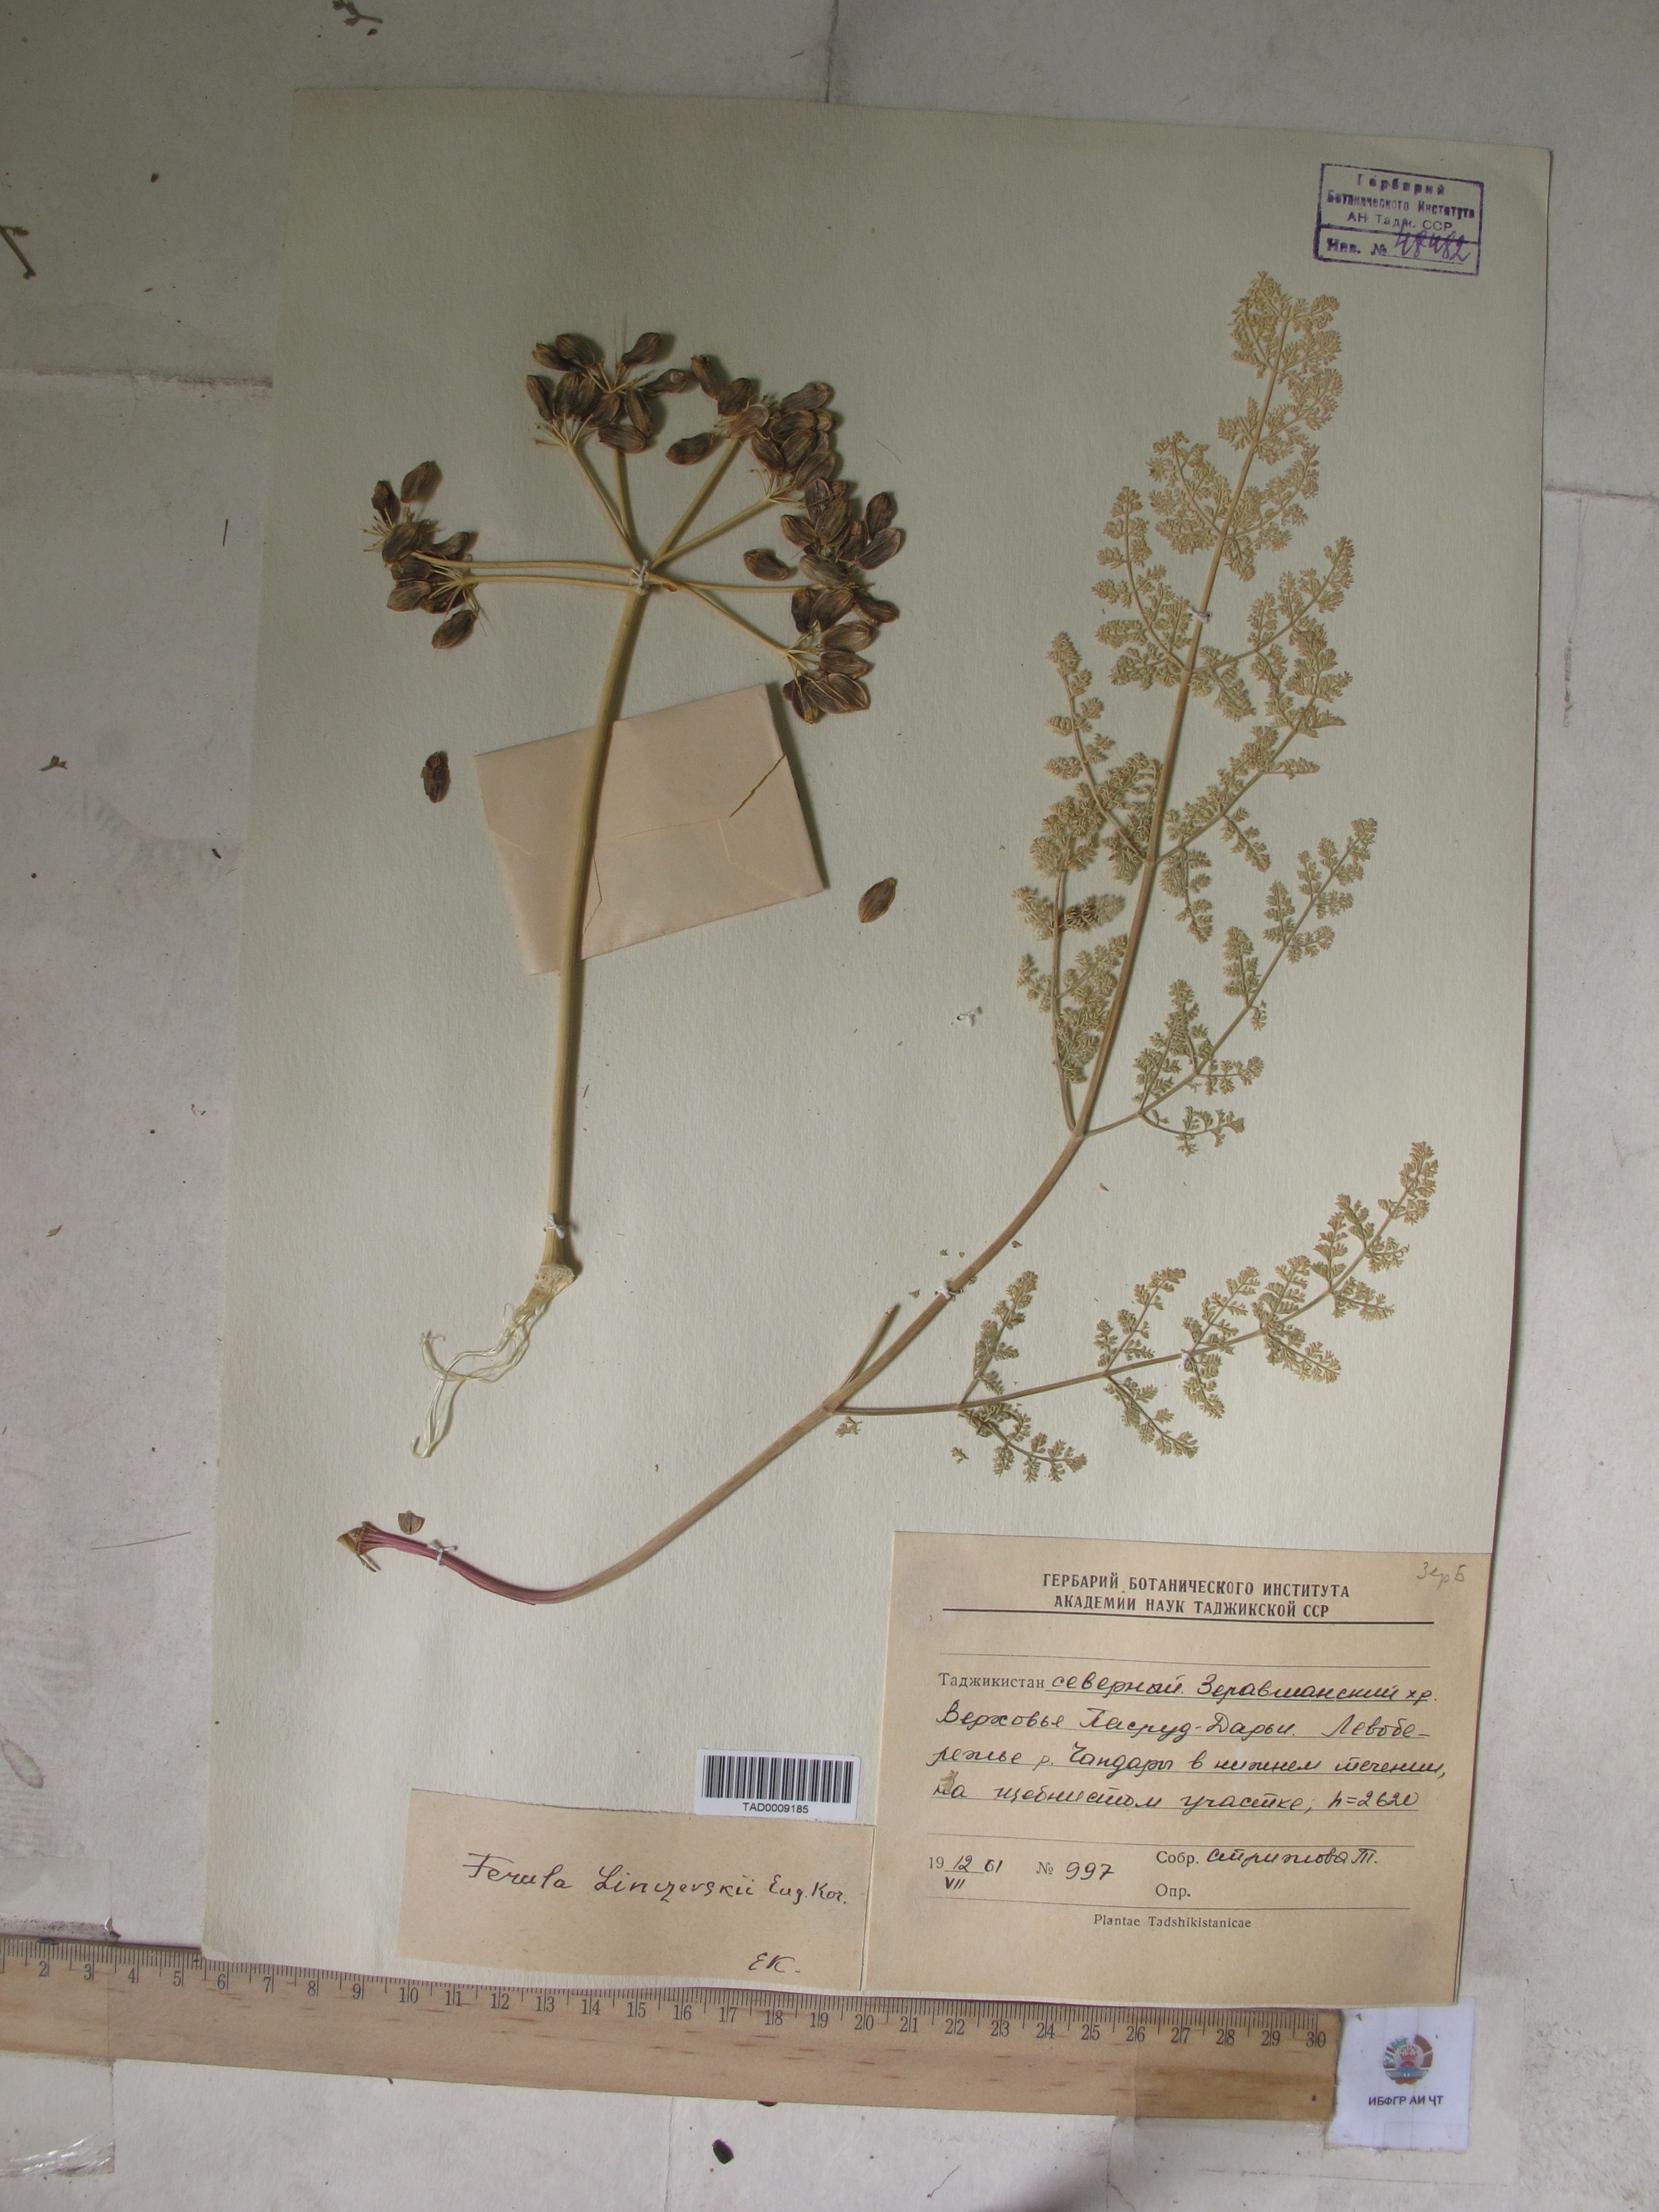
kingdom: Plantae
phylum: Tracheophyta
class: Magnoliopsida
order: Apiales
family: Apiaceae
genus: Ferula
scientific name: Ferula linczevskii
